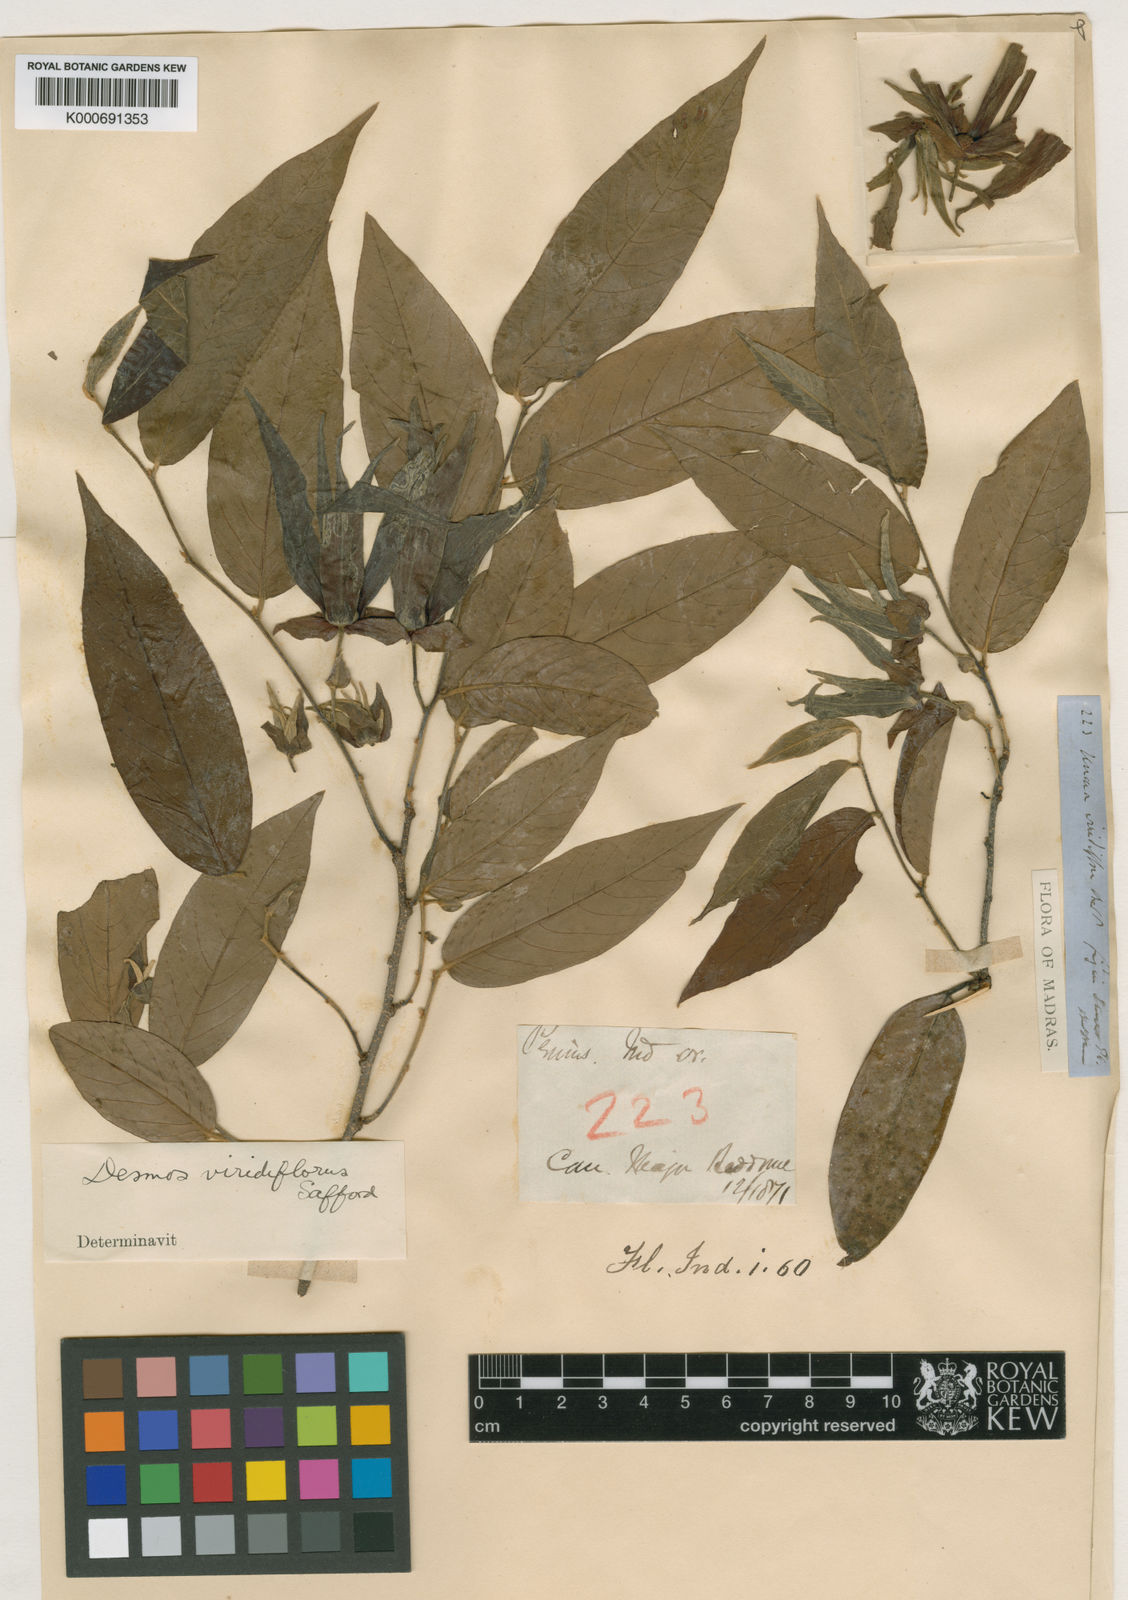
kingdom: Plantae
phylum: Tracheophyta
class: Magnoliopsida
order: Magnoliales
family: Annonaceae
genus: Desmos
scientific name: Desmos viridiflorus
